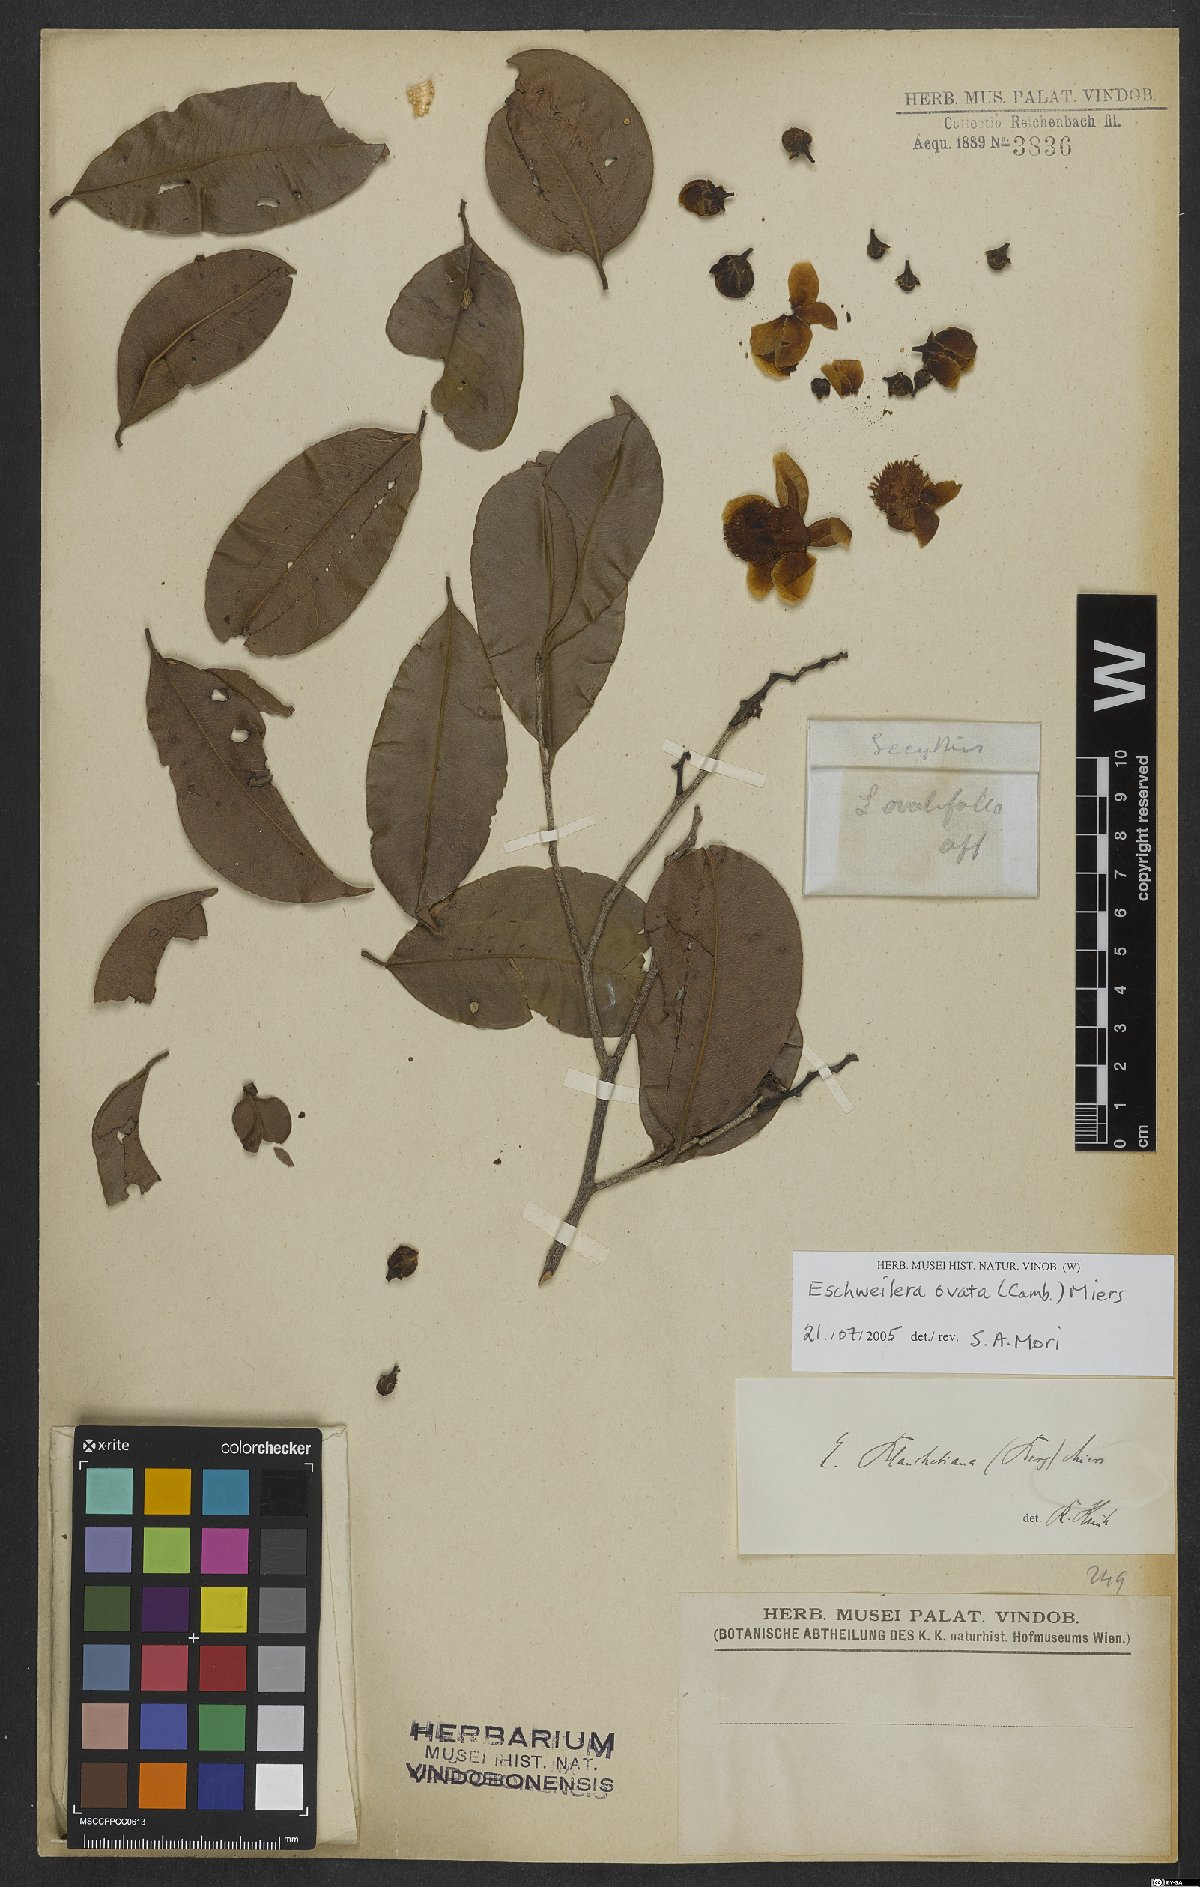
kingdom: Plantae
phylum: Tracheophyta
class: Magnoliopsida
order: Ericales
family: Lecythidaceae
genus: Eschweilera
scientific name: Eschweilera ovata
